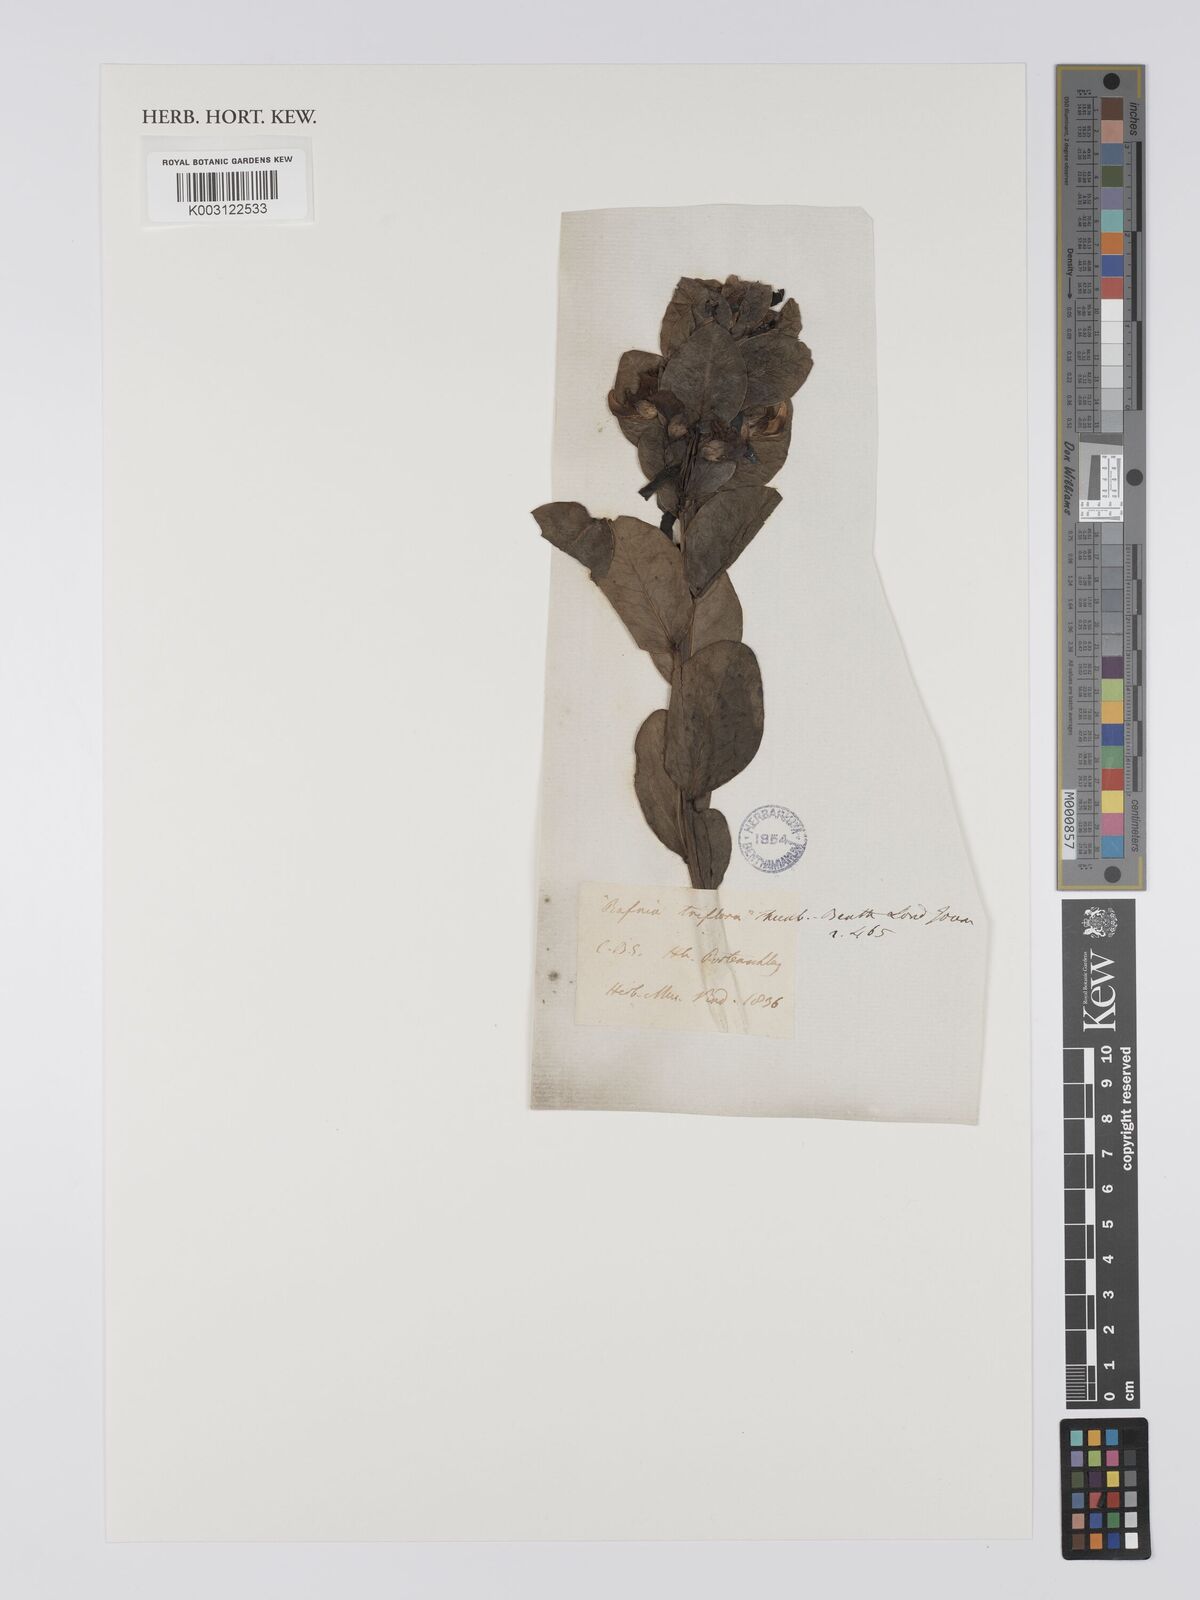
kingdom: Plantae
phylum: Tracheophyta
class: Magnoliopsida
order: Fabales
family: Fabaceae
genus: Rafnia
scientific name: Rafnia triflora
